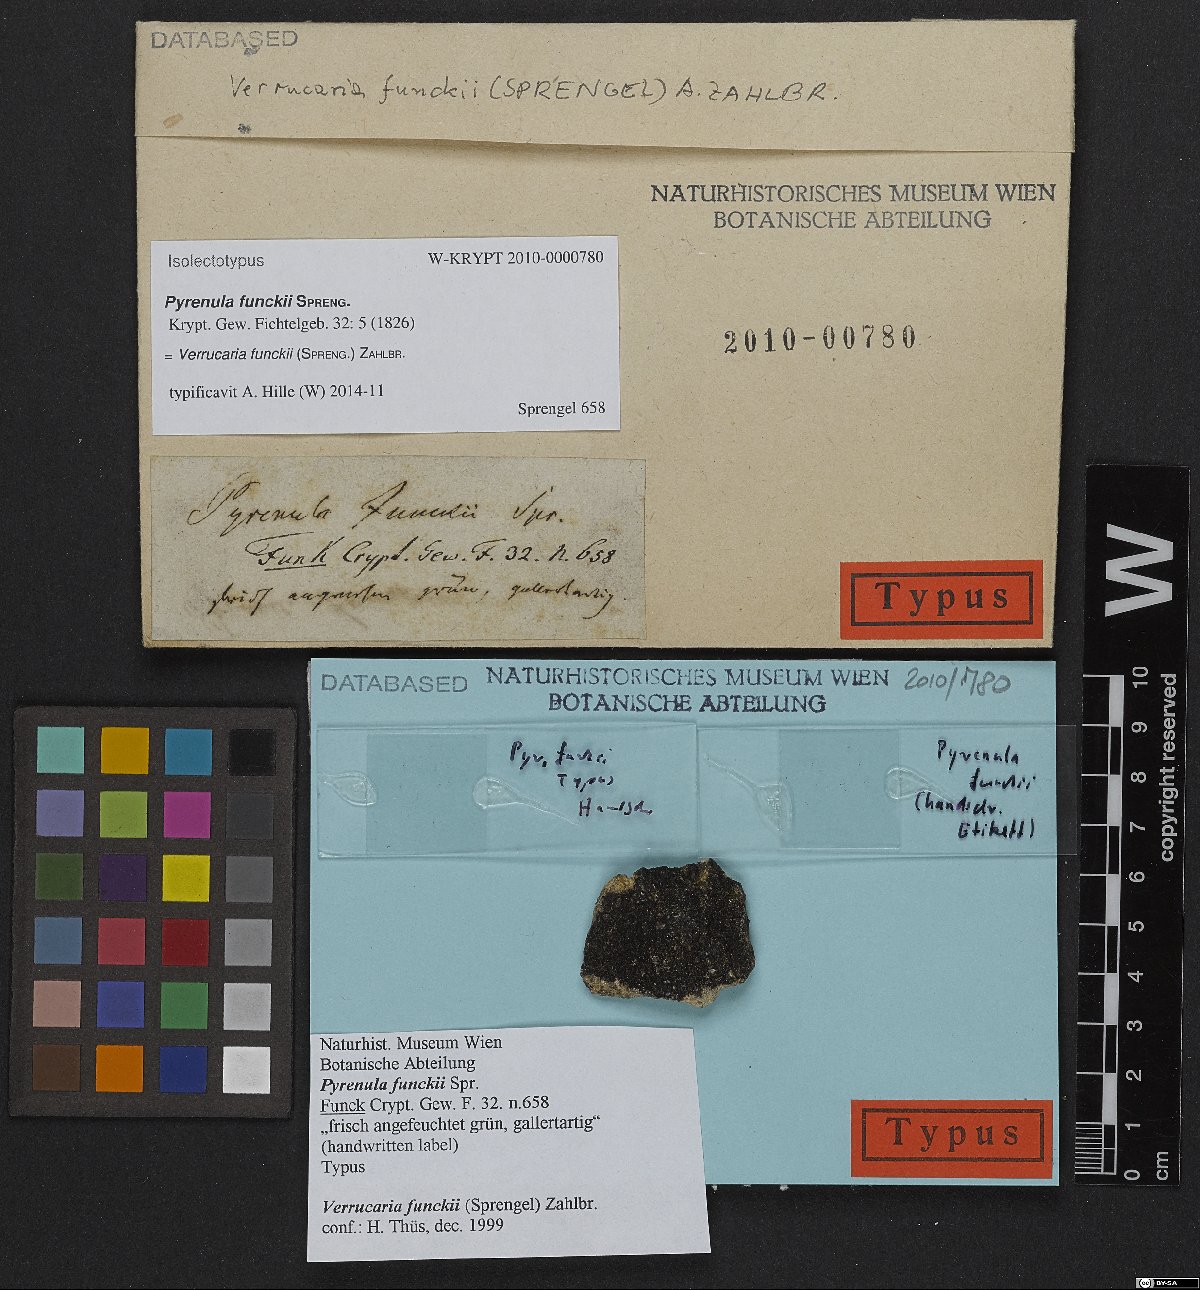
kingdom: Fungi
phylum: Ascomycota
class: Eurotiomycetes
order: Verrucariales
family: Verrucariaceae
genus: Verrucaria
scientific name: Verrucaria funckii
